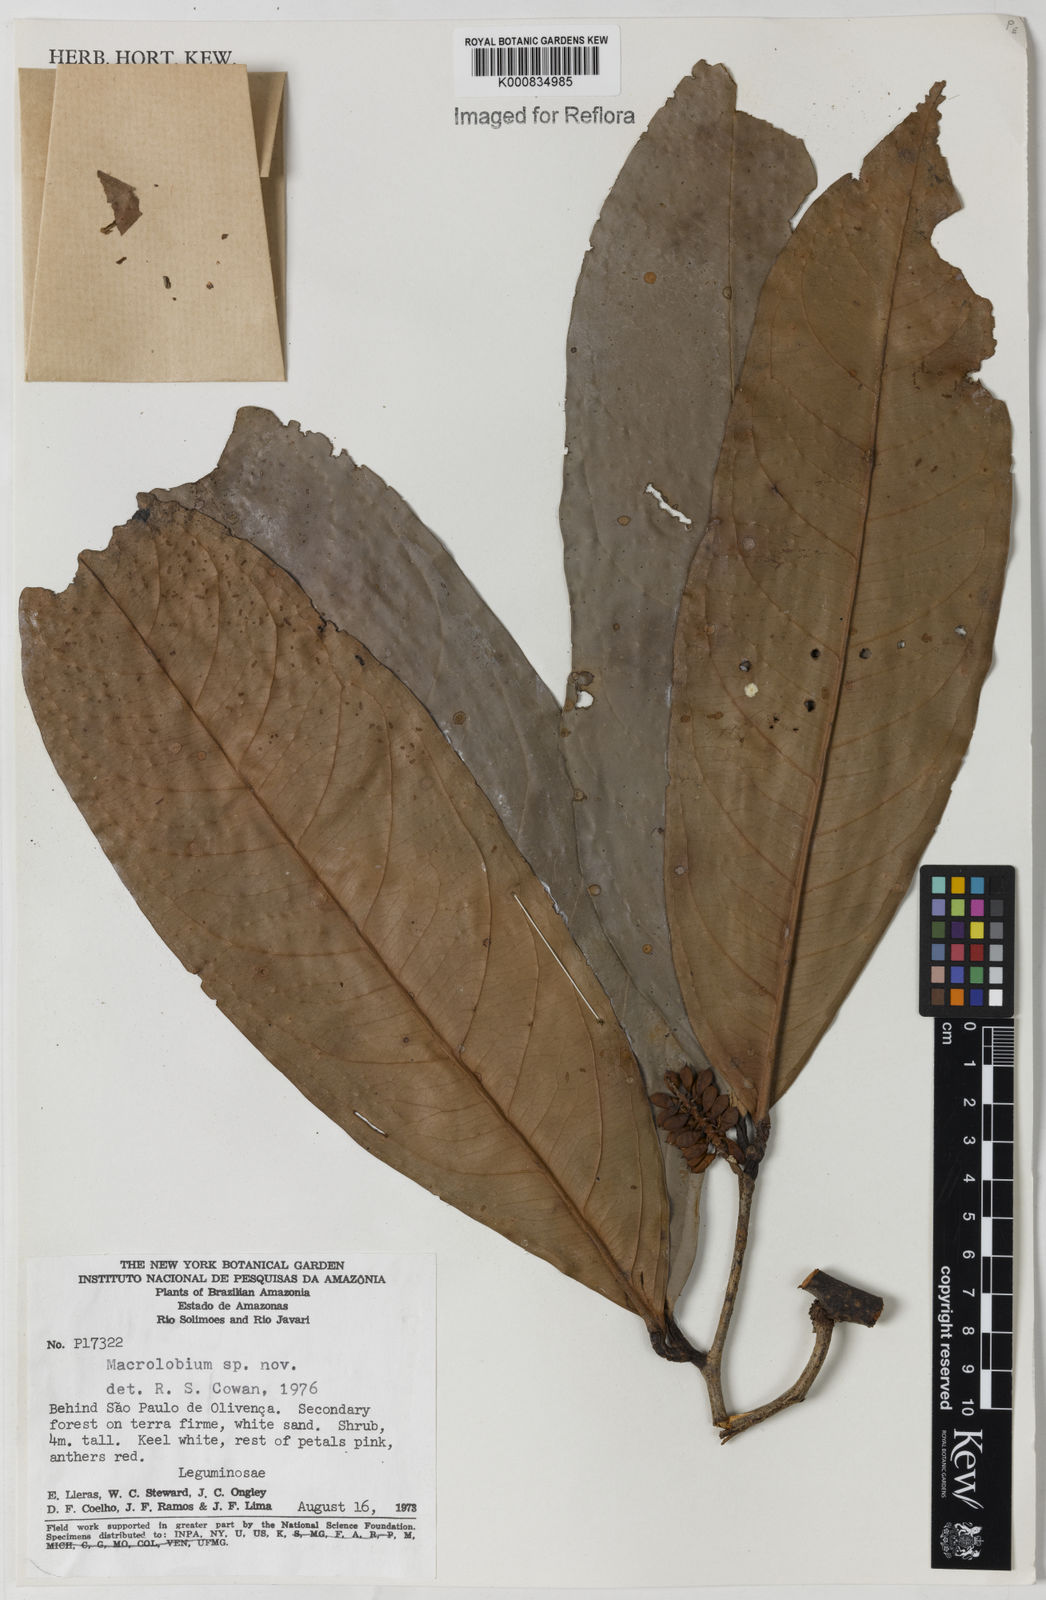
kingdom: Plantae
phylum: Tracheophyta
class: Magnoliopsida
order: Fabales
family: Fabaceae
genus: Macrolobium
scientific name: Macrolobium
